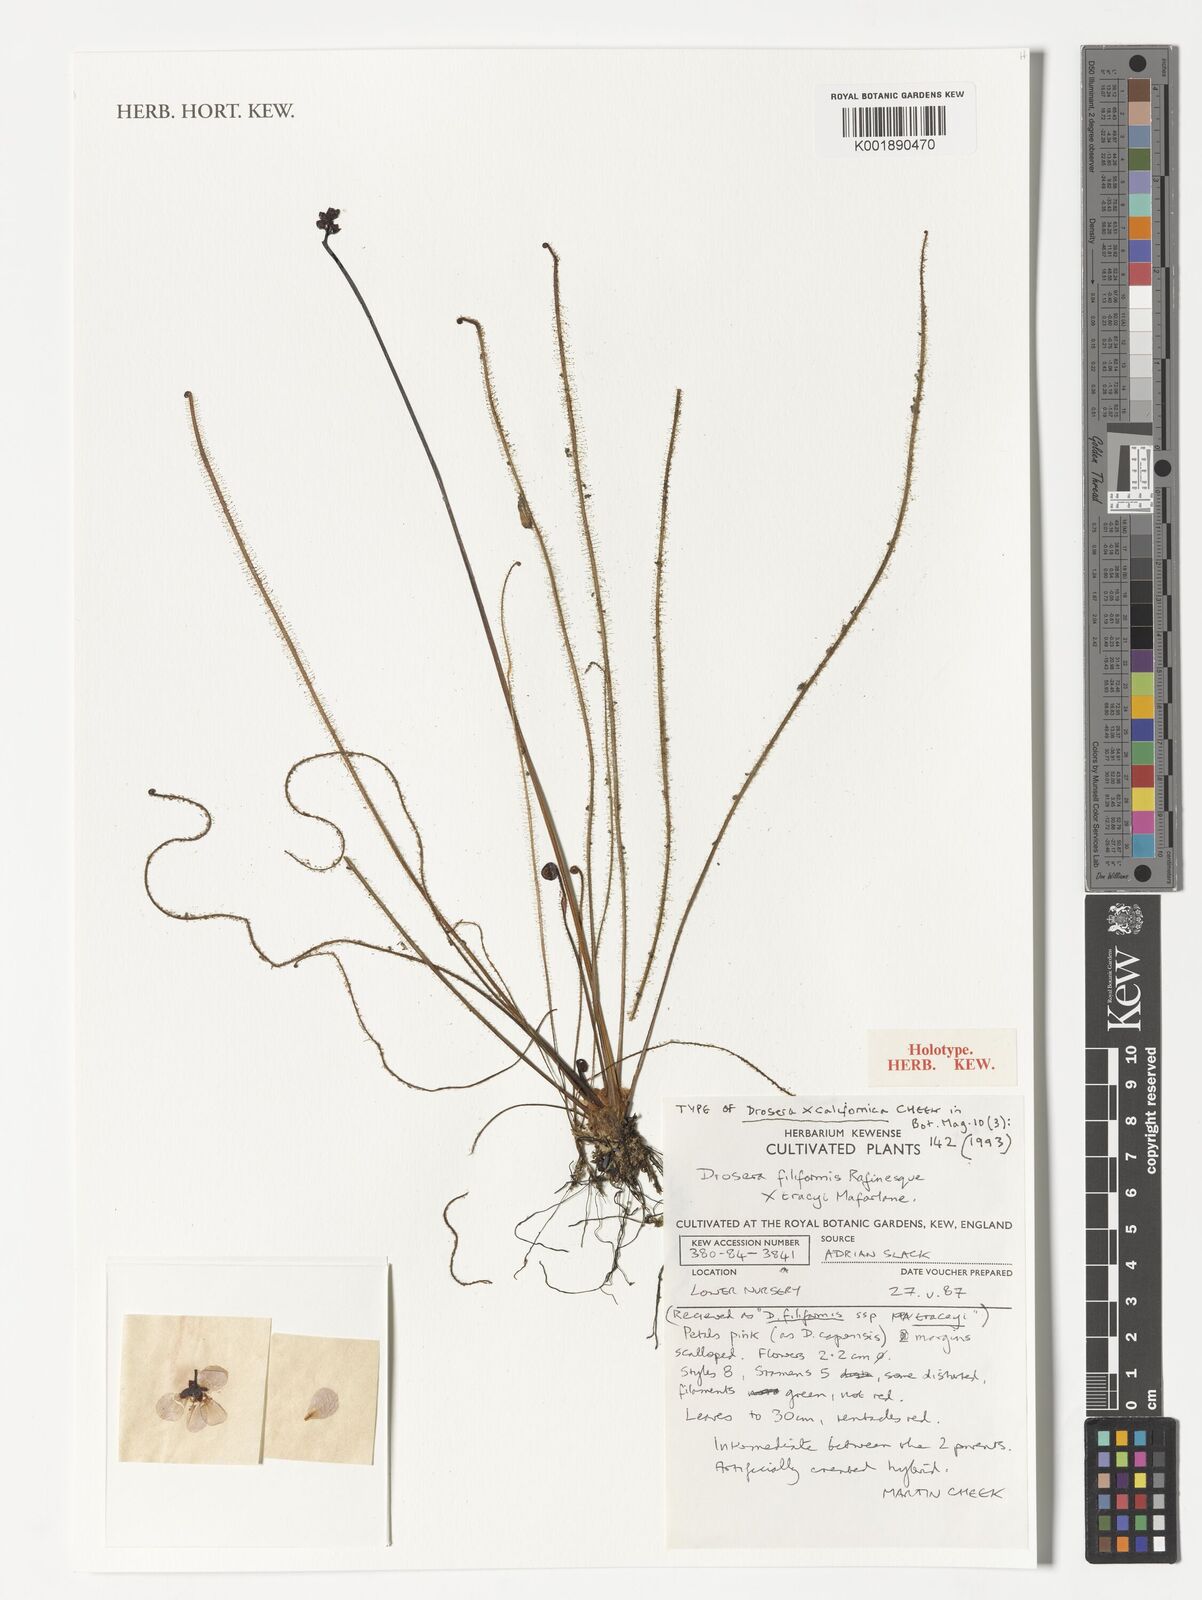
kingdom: Plantae
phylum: Tracheophyta
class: Magnoliopsida
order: Caryophyllales
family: Droseraceae
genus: Drosera
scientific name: Drosera californica
